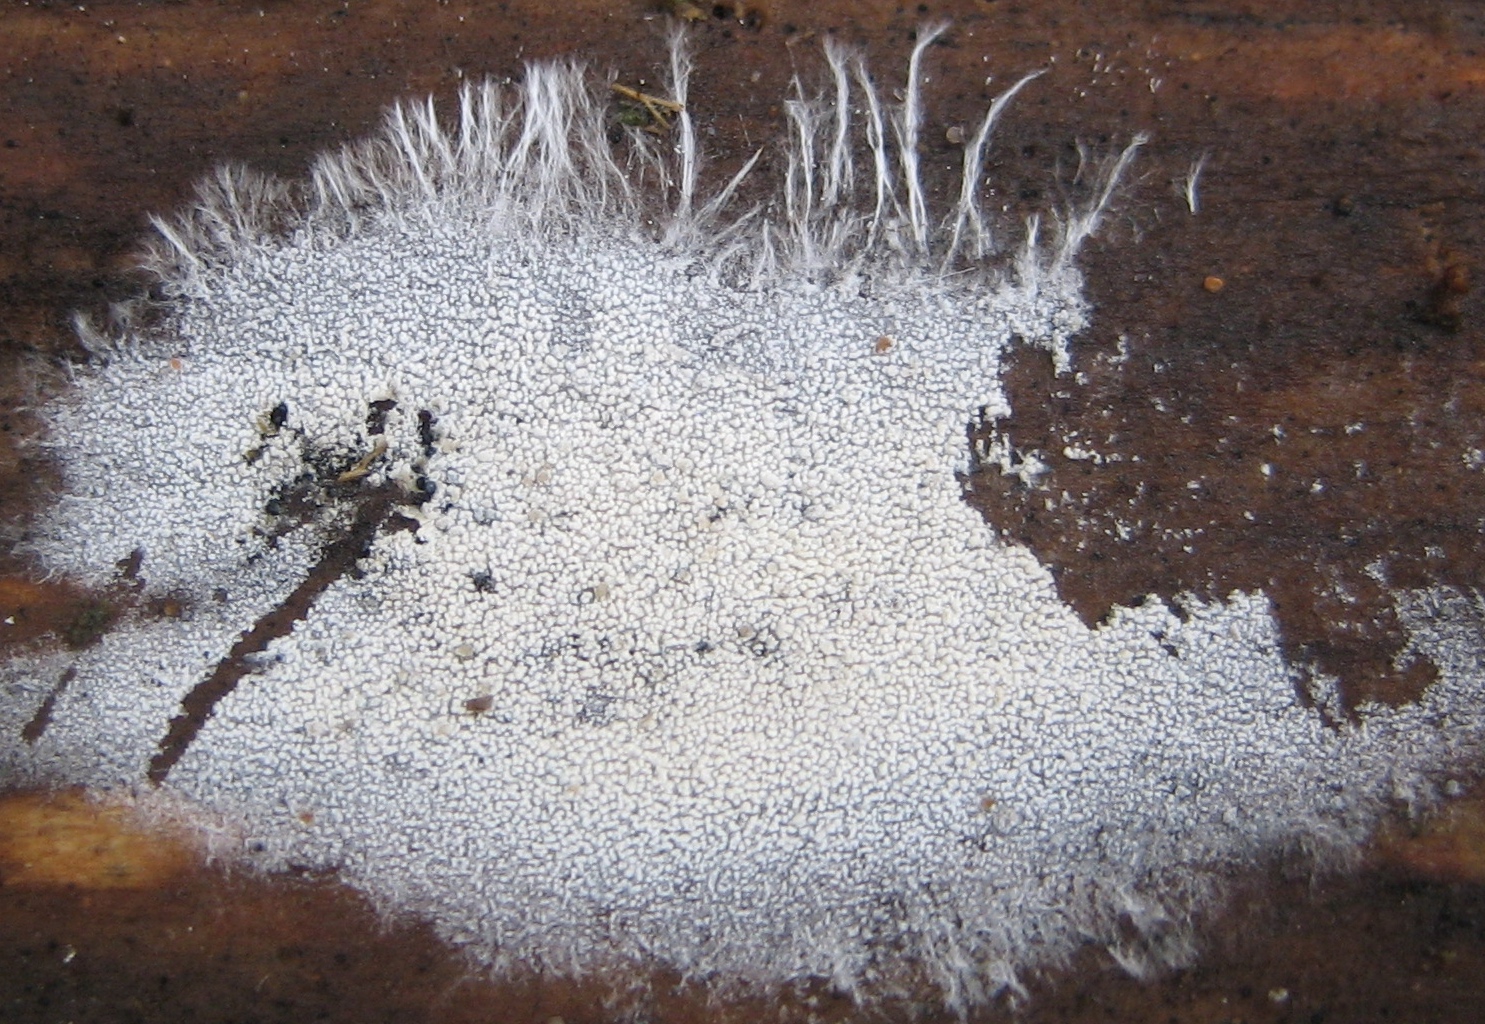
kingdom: Fungi
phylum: Basidiomycota
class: Agaricomycetes
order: Corticiales
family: Corticiaceae
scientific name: Corticiaceae
